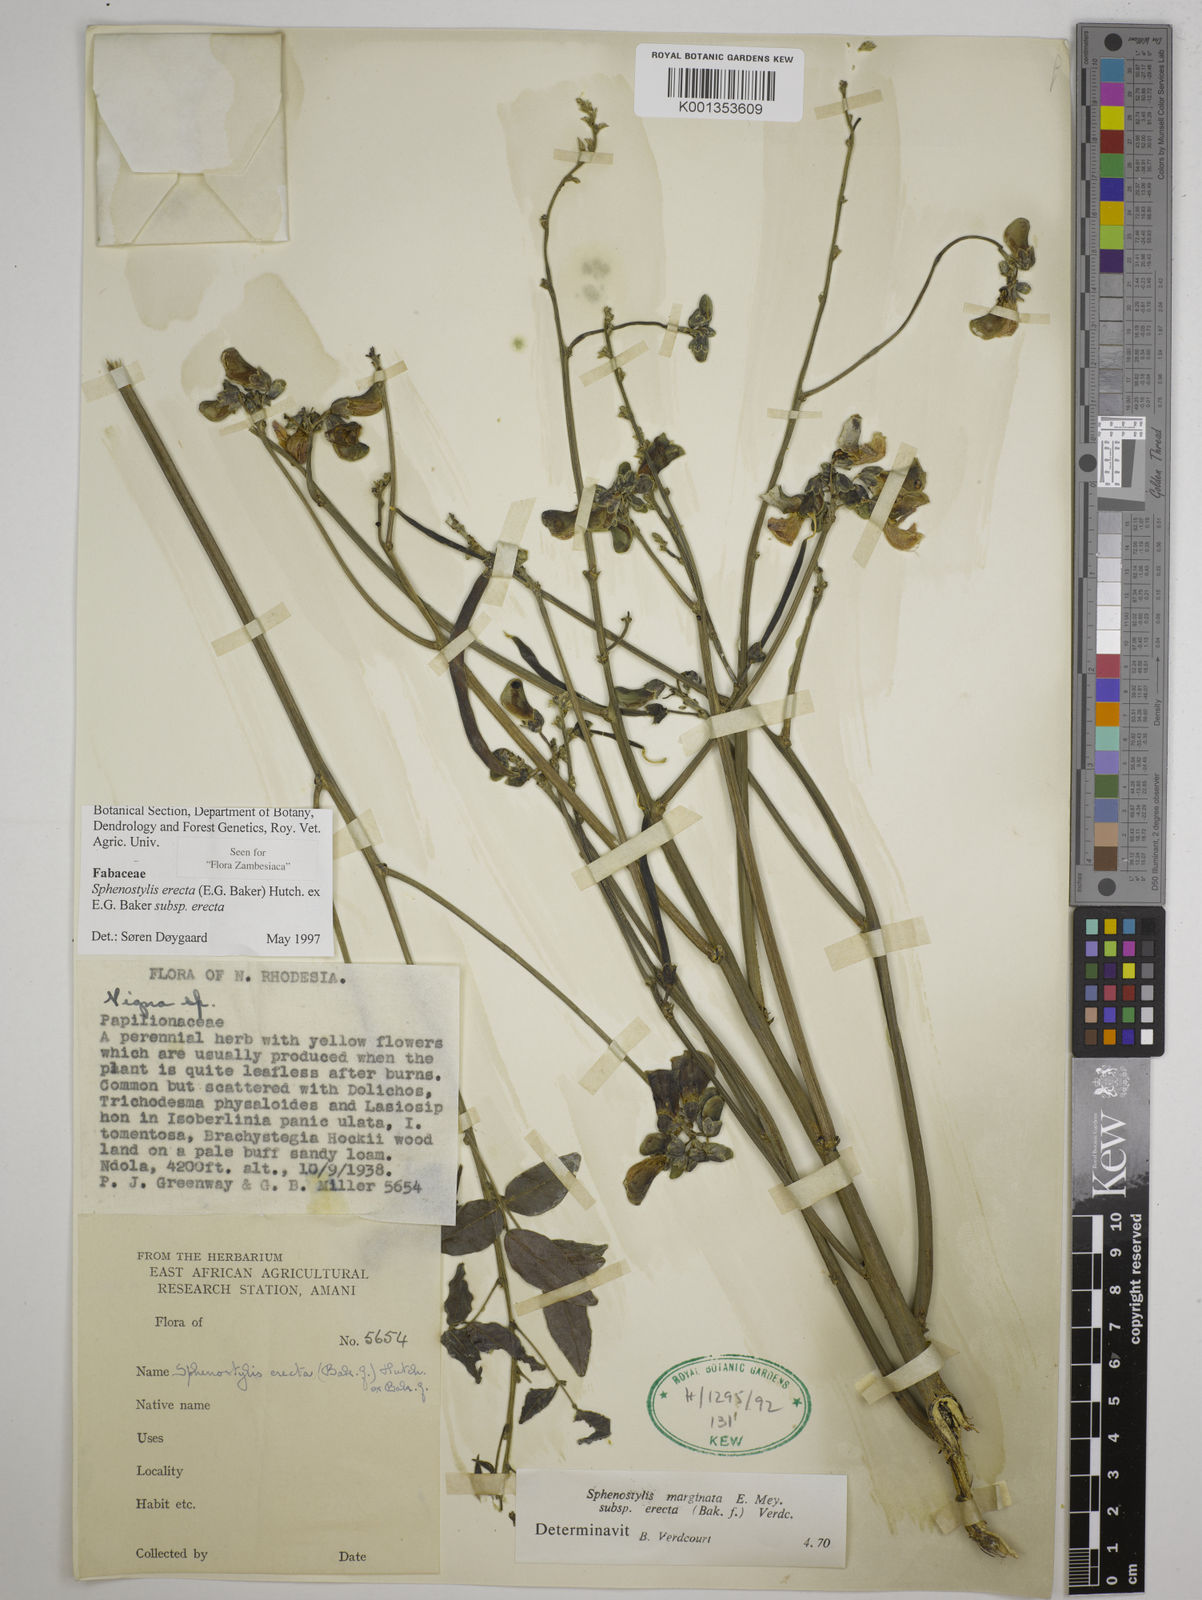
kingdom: Plantae
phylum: Tracheophyta
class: Magnoliopsida
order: Fabales
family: Fabaceae
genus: Sphenostylis
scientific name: Sphenostylis erecta
